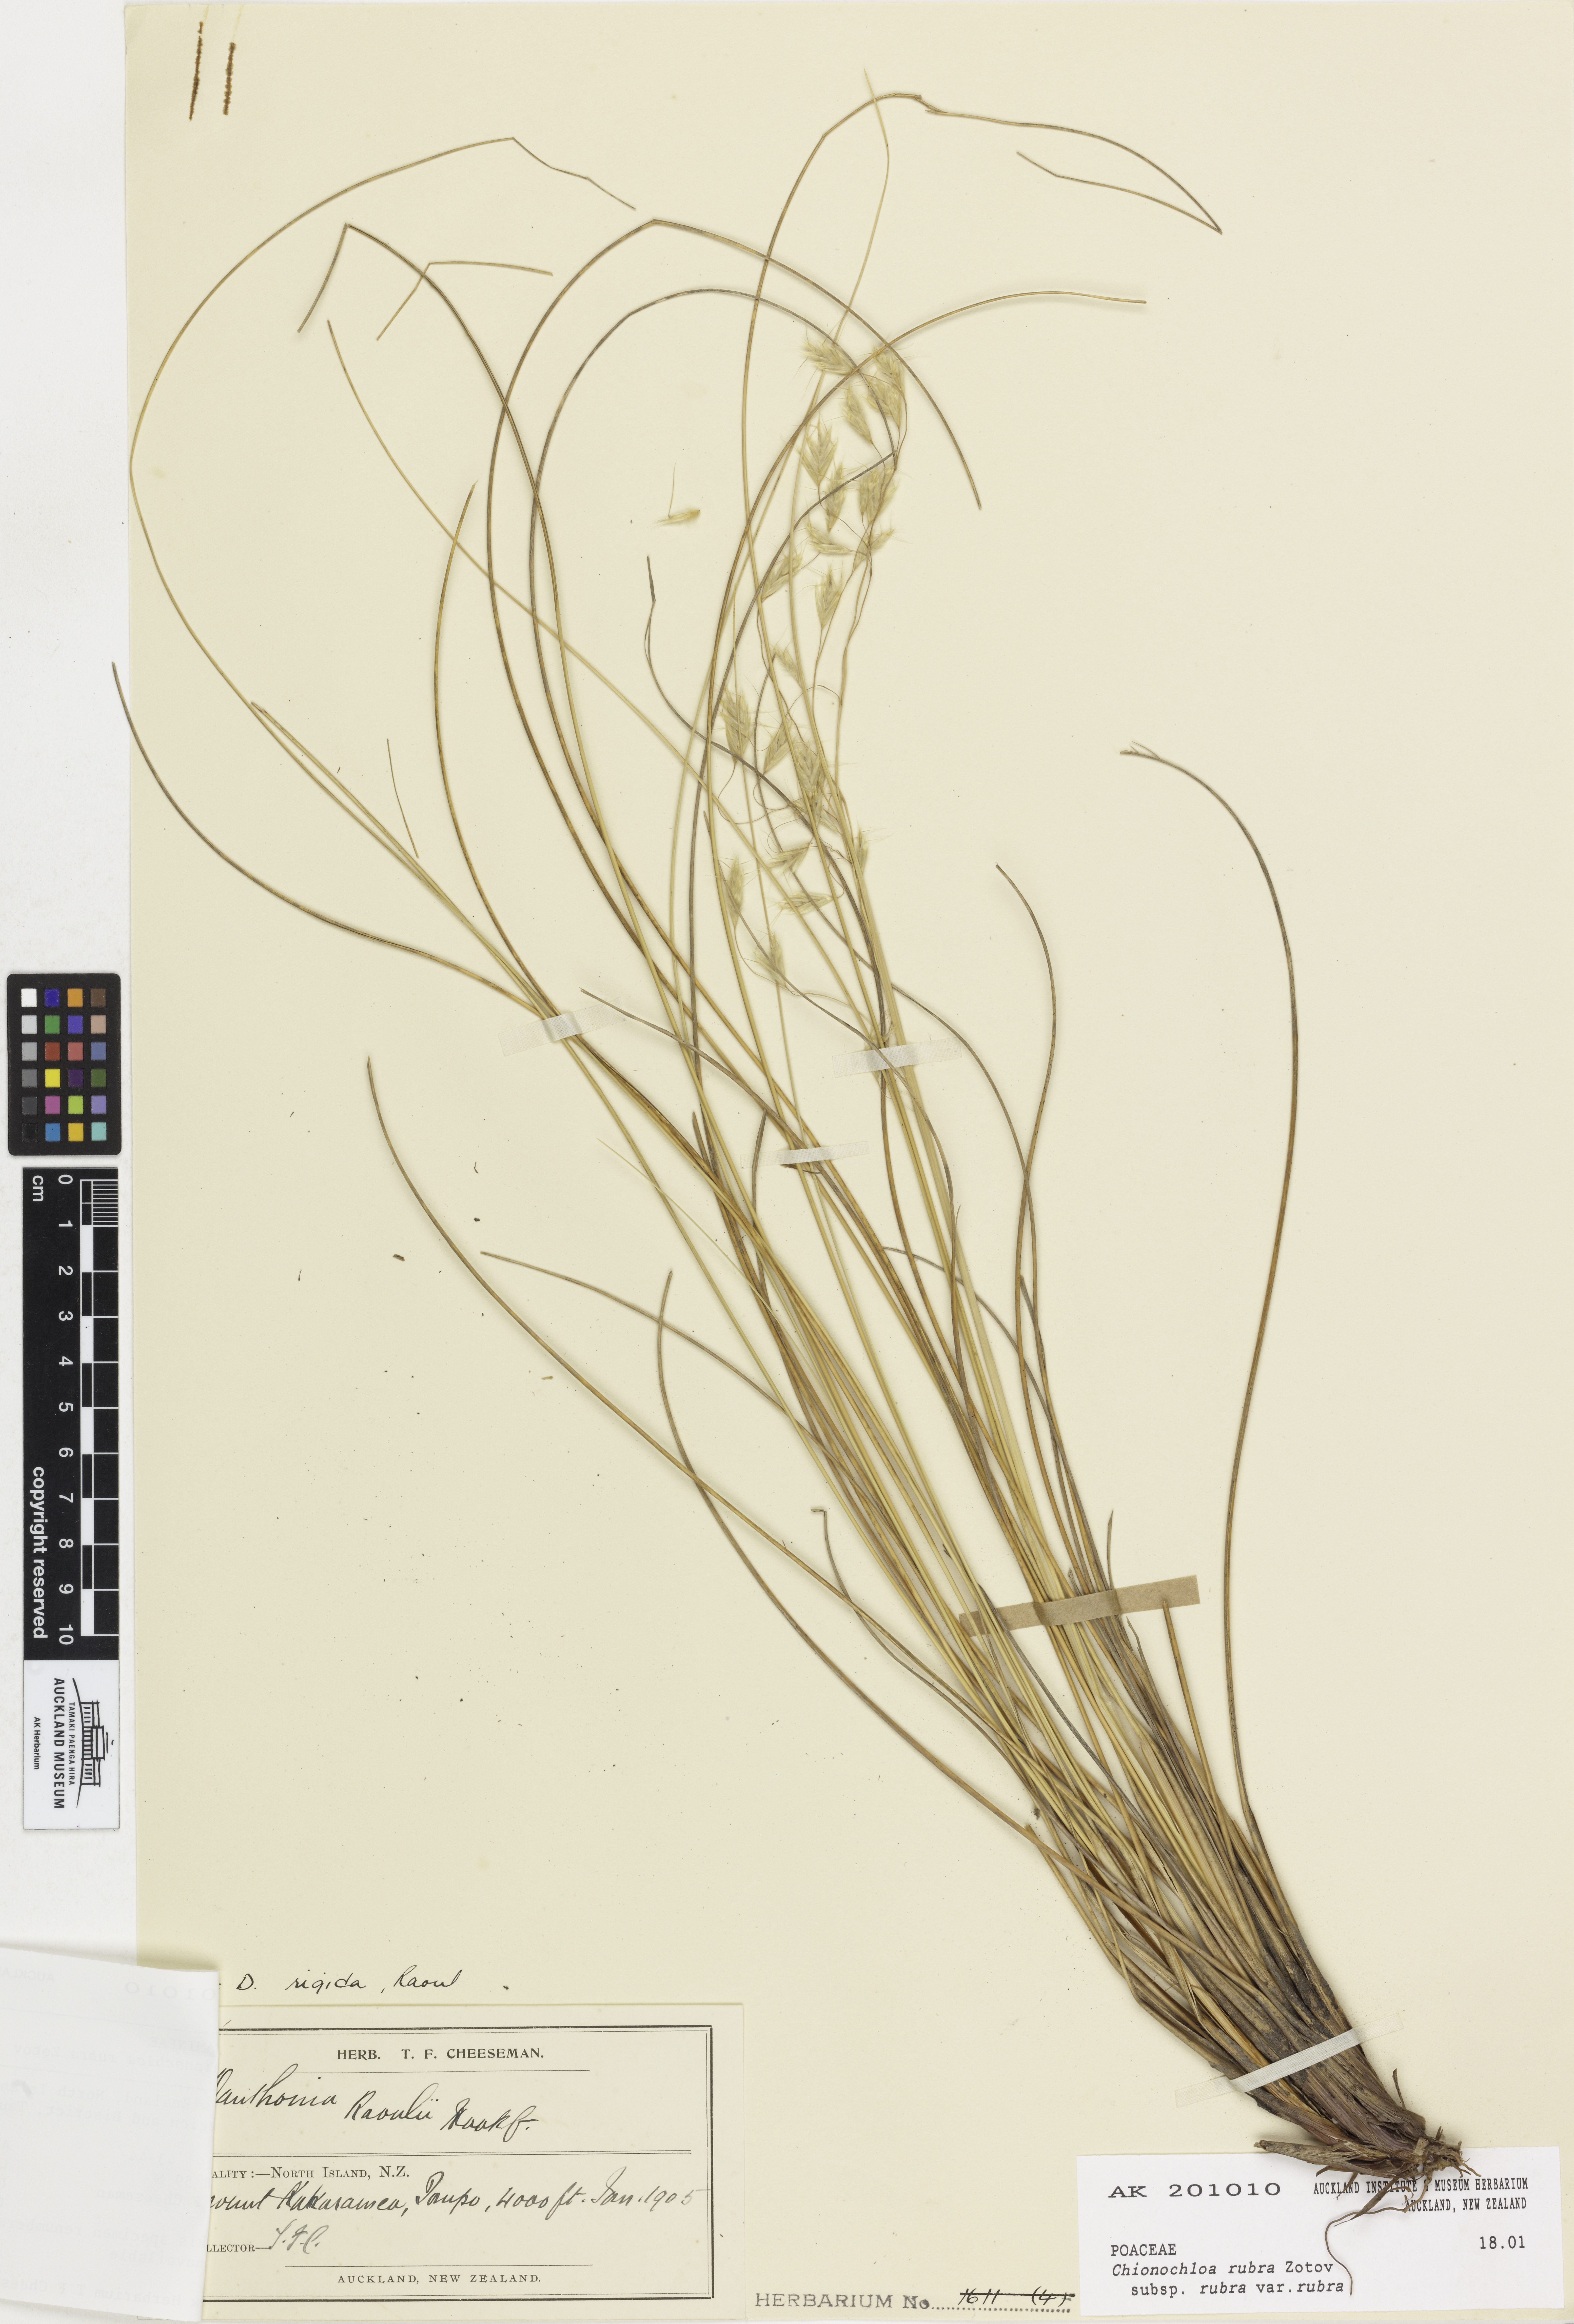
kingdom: Plantae
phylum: Tracheophyta
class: Liliopsida
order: Poales
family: Poaceae
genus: Chionochloa
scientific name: Chionochloa rubra
